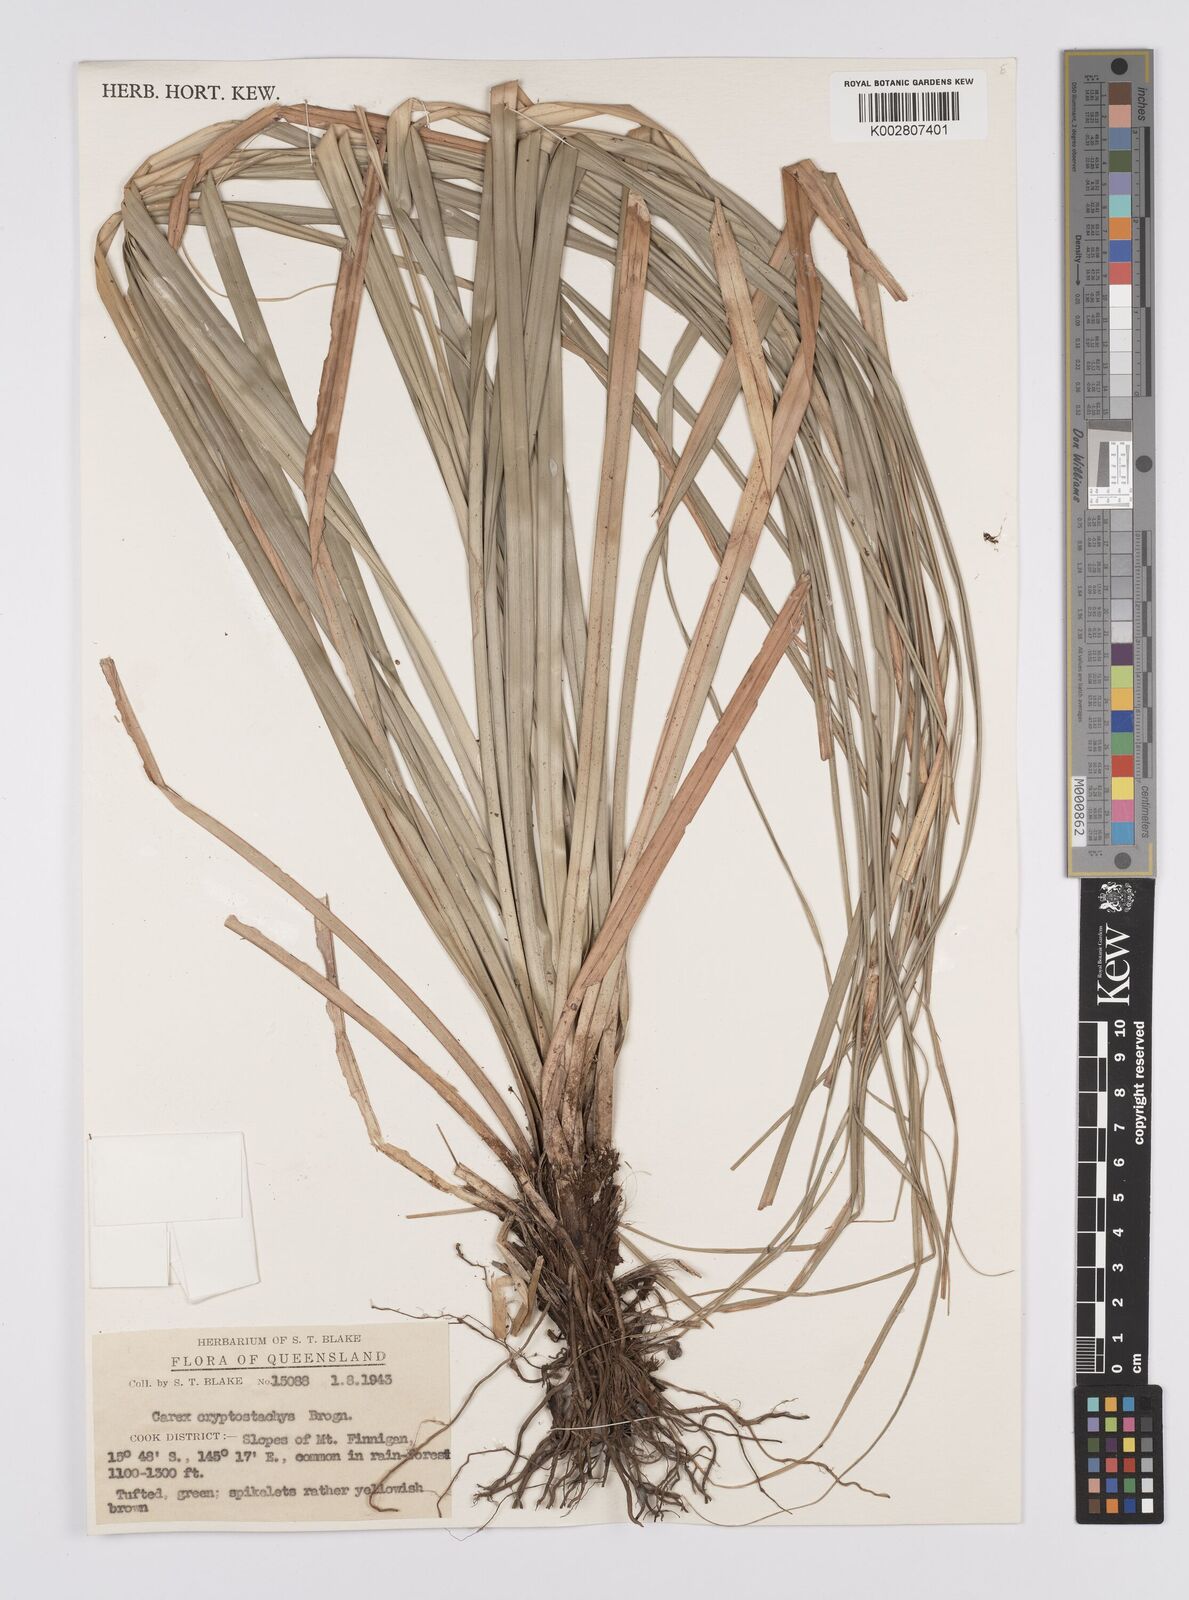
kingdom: Plantae
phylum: Tracheophyta
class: Liliopsida
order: Poales
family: Cyperaceae
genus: Carex
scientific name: Carex cryptostachys
